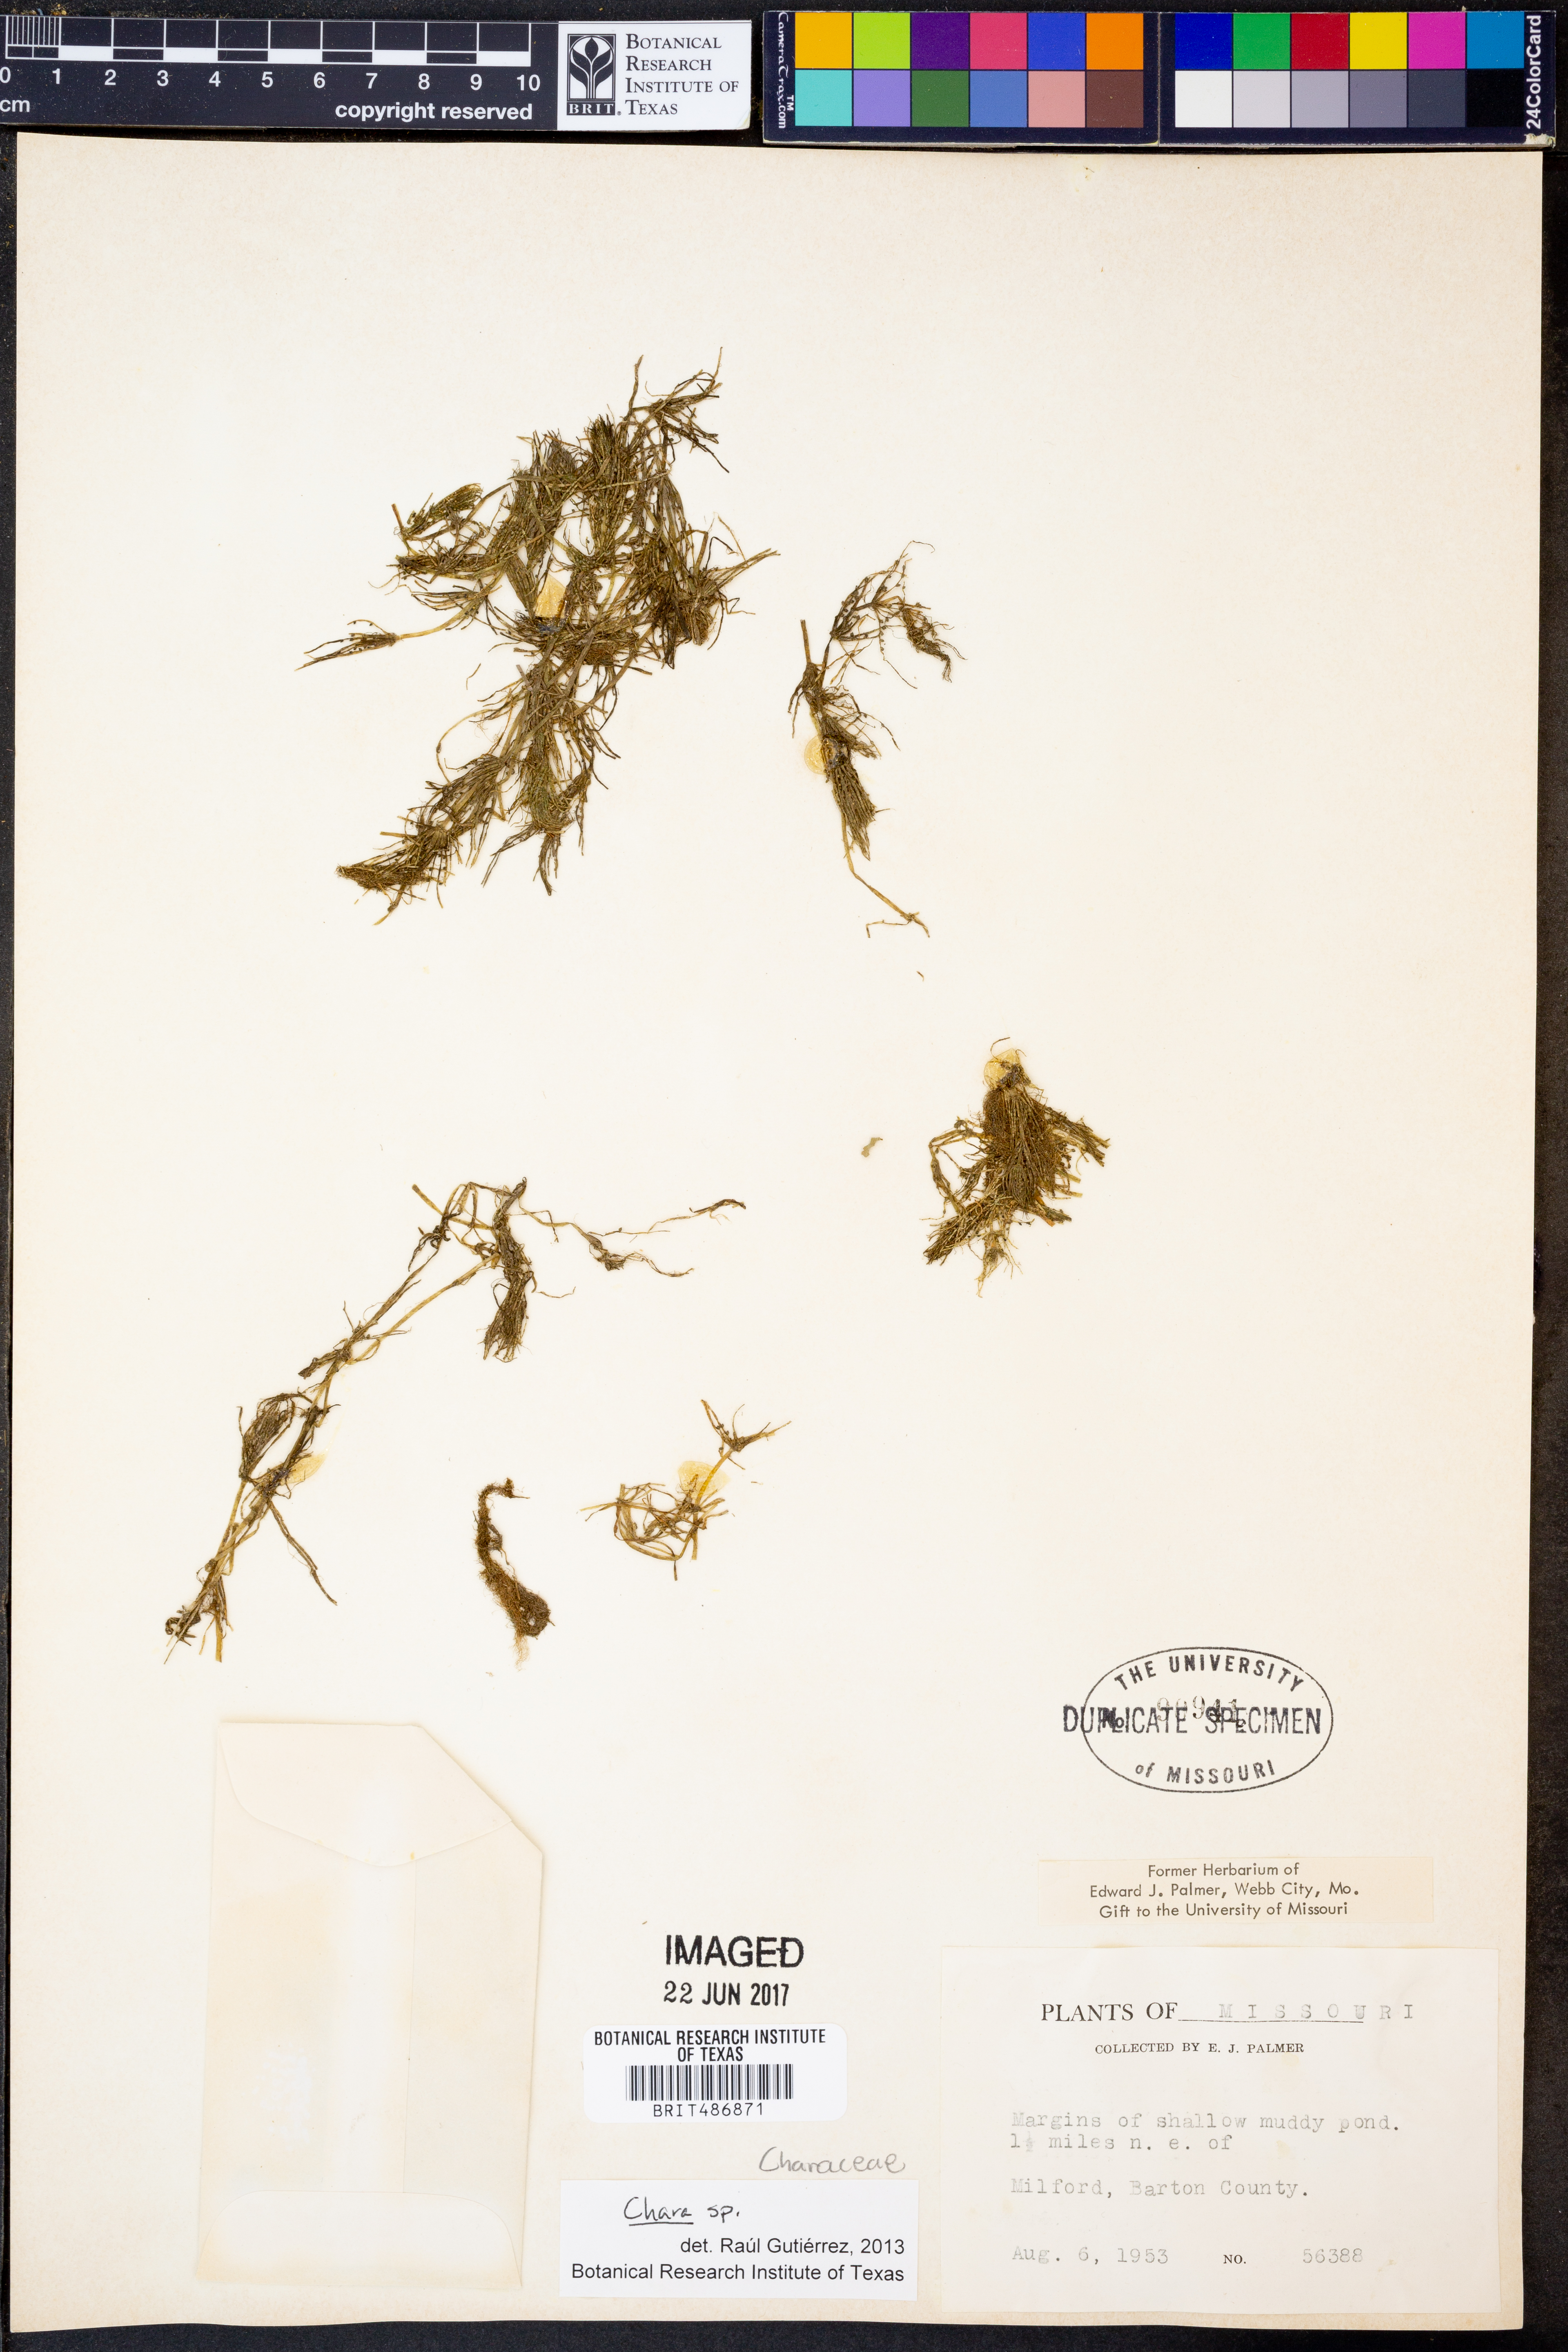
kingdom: Plantae
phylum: Charophyta
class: Charophyceae
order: Charales
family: Characeae
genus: Chara
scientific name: Chara
